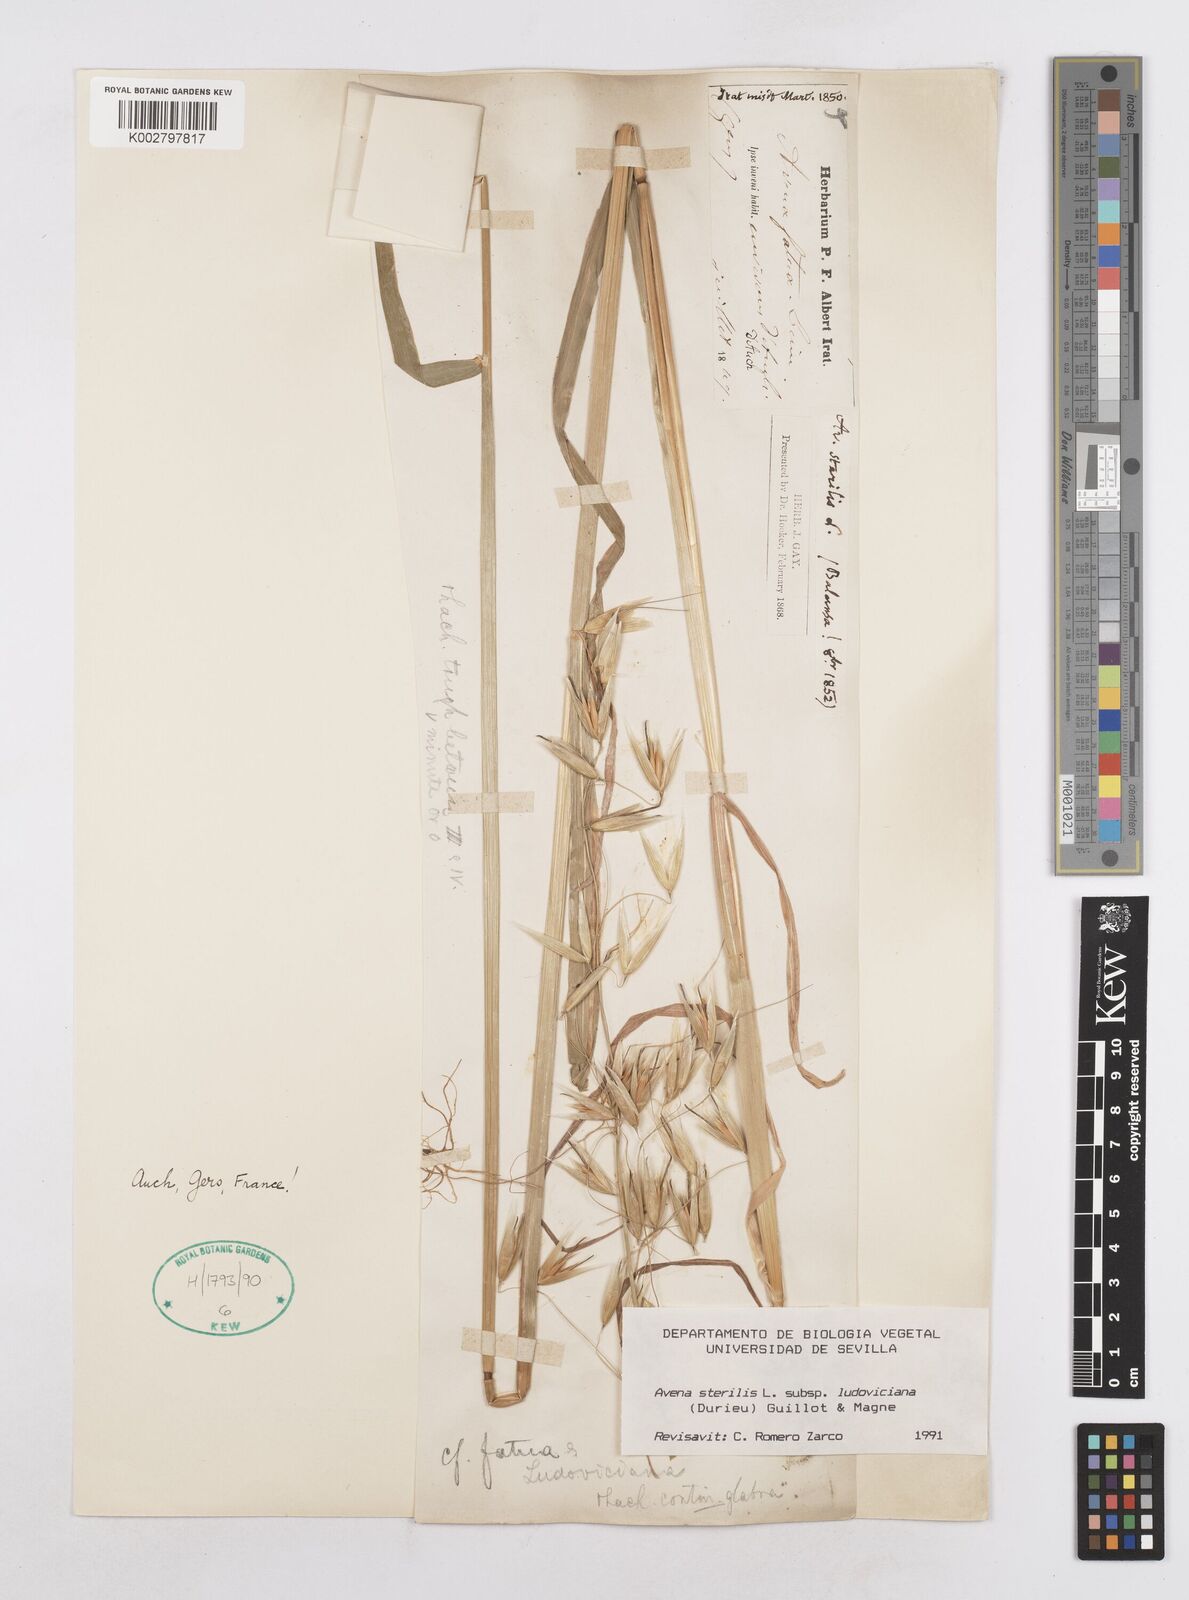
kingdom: Plantae
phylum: Tracheophyta
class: Liliopsida
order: Poales
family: Poaceae
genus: Avena
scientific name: Avena sterilis
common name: Animated oat
